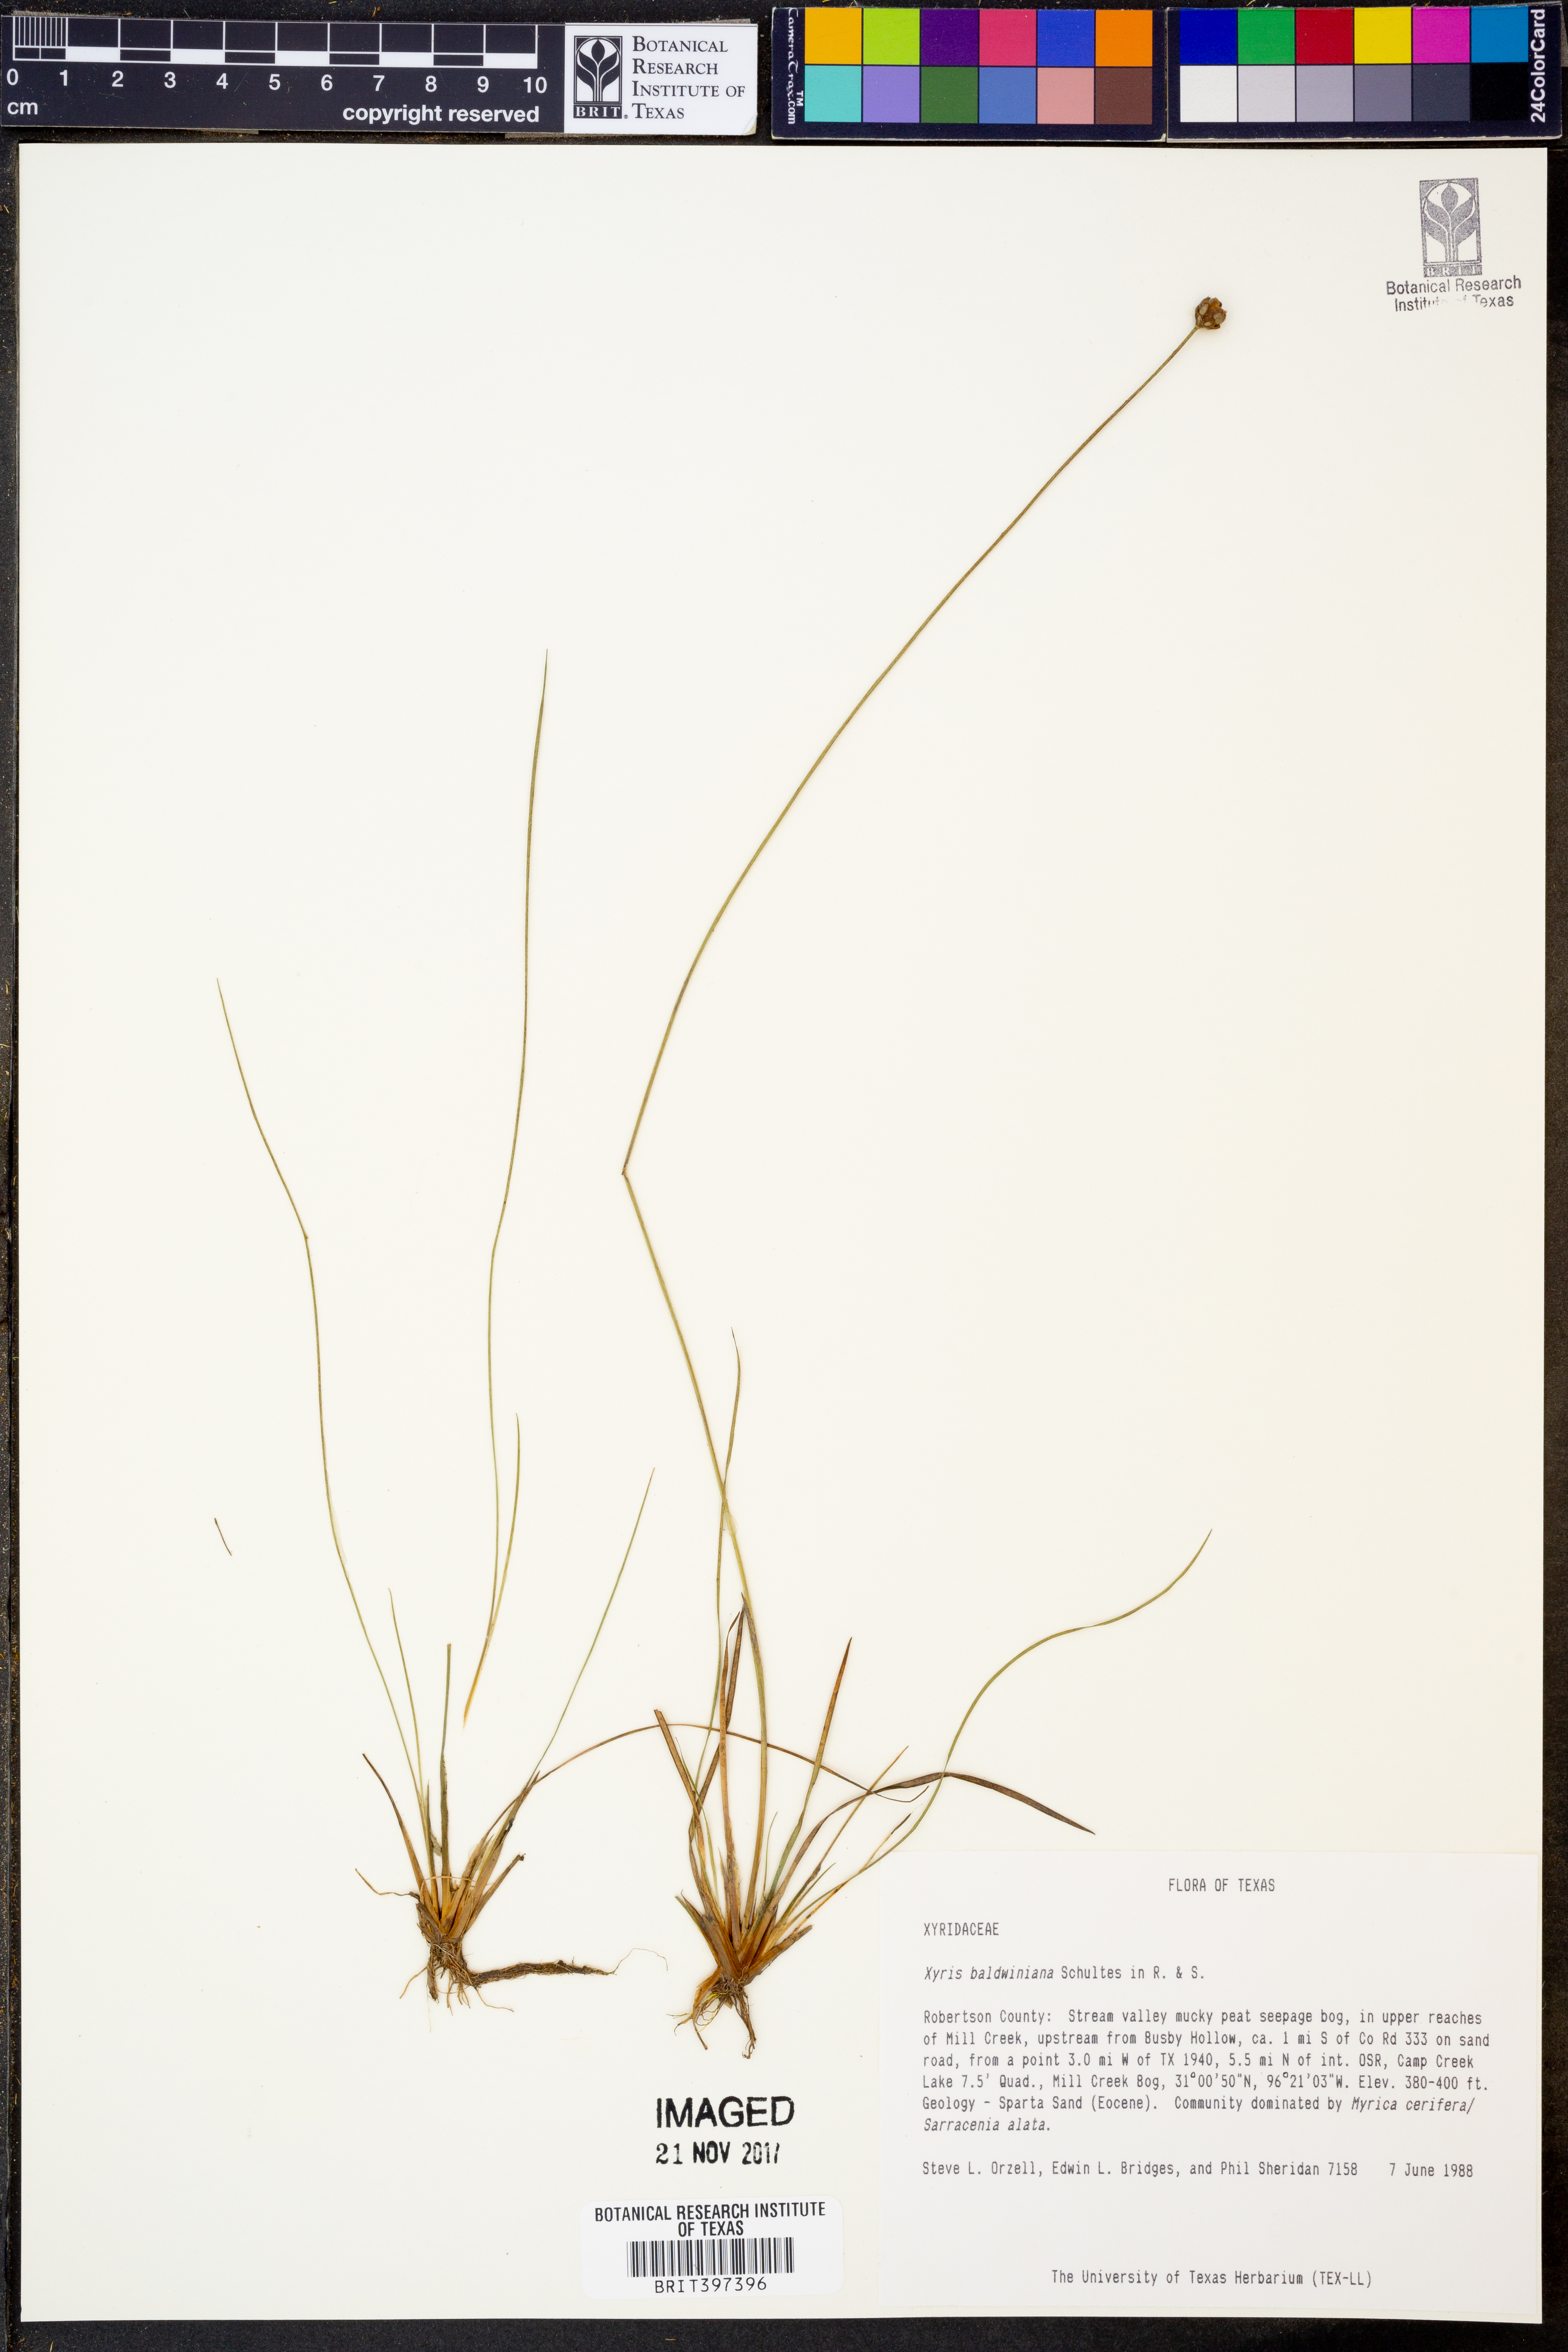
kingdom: Plantae
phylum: Tracheophyta
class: Liliopsida
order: Poales
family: Xyridaceae
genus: Xyris
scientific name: Xyris baldwiniana
